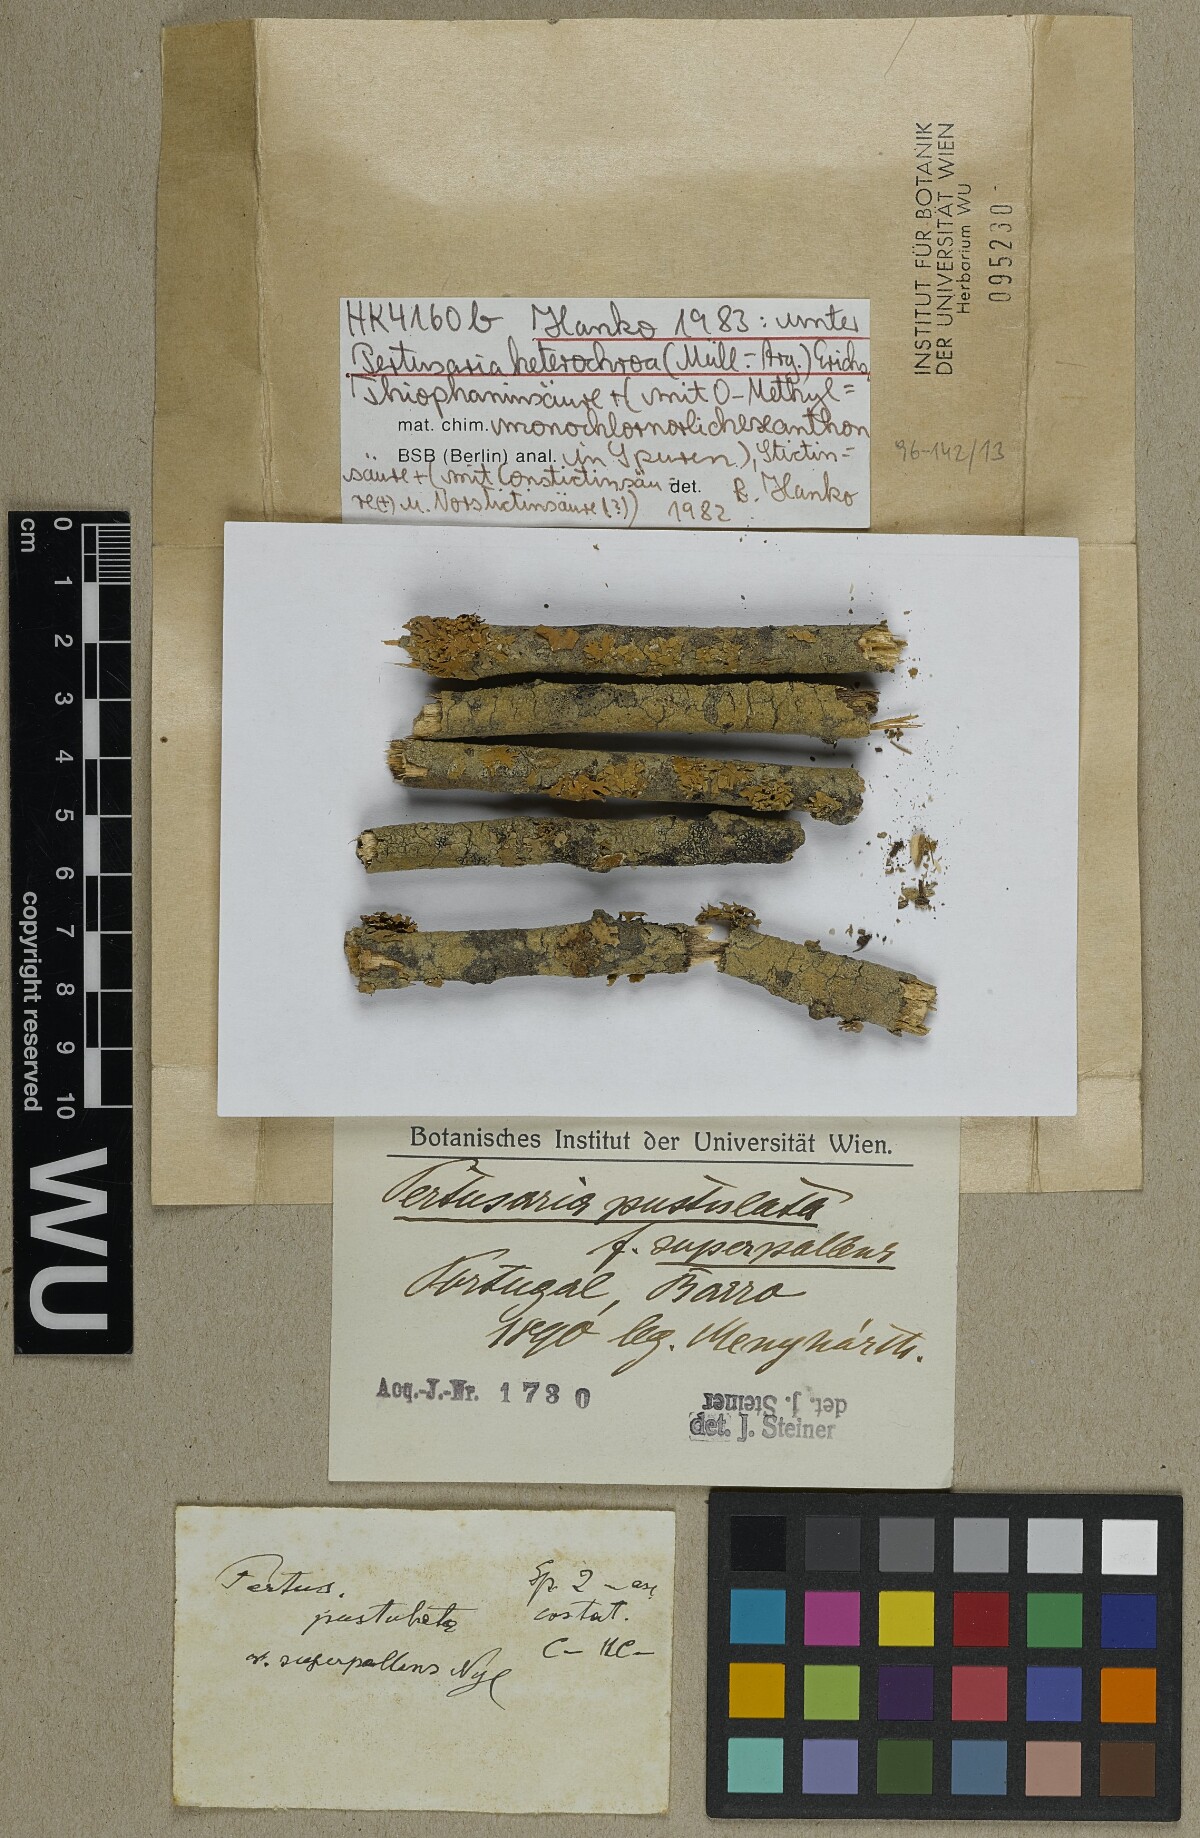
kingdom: Fungi
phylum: Ascomycota
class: Lecanoromycetes
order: Pertusariales
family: Pertusariaceae
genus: Pertusaria
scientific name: Pertusaria heterochroa
